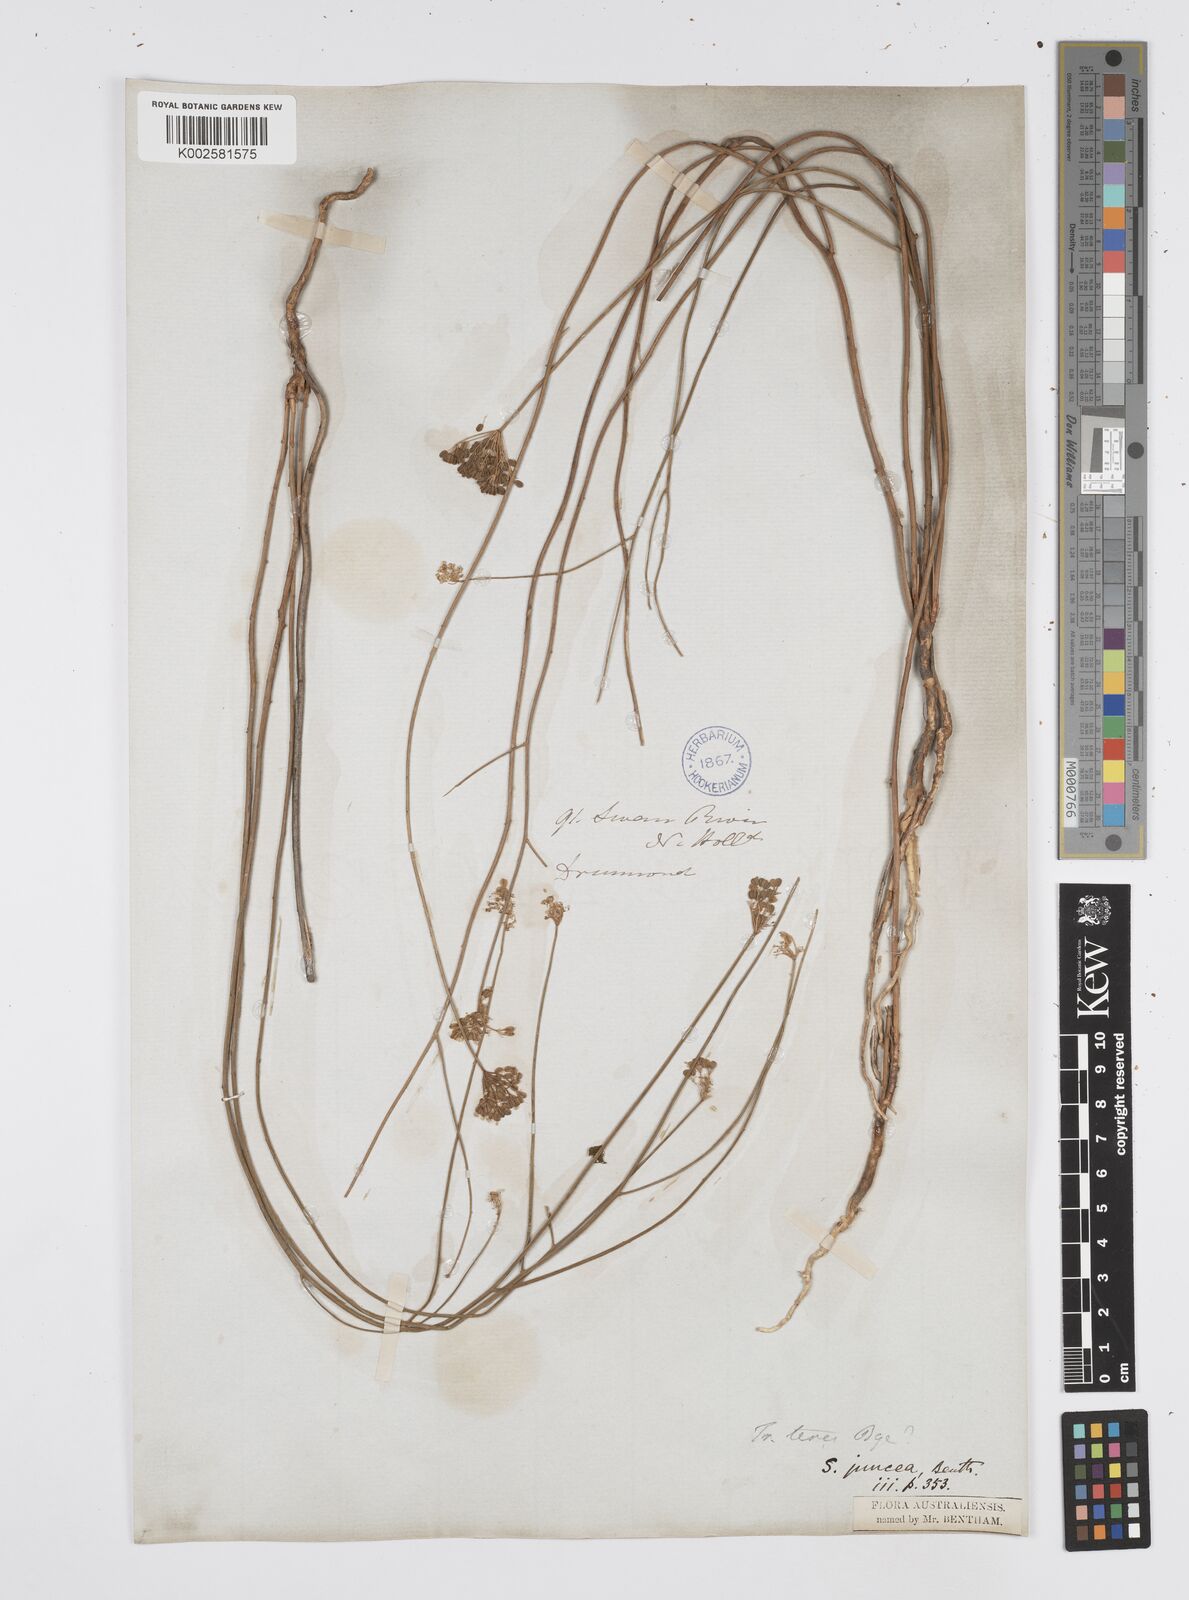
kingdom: Plantae
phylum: Tracheophyta
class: Magnoliopsida
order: Apiales
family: Apiaceae
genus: Platysace
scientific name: Platysace juncea
